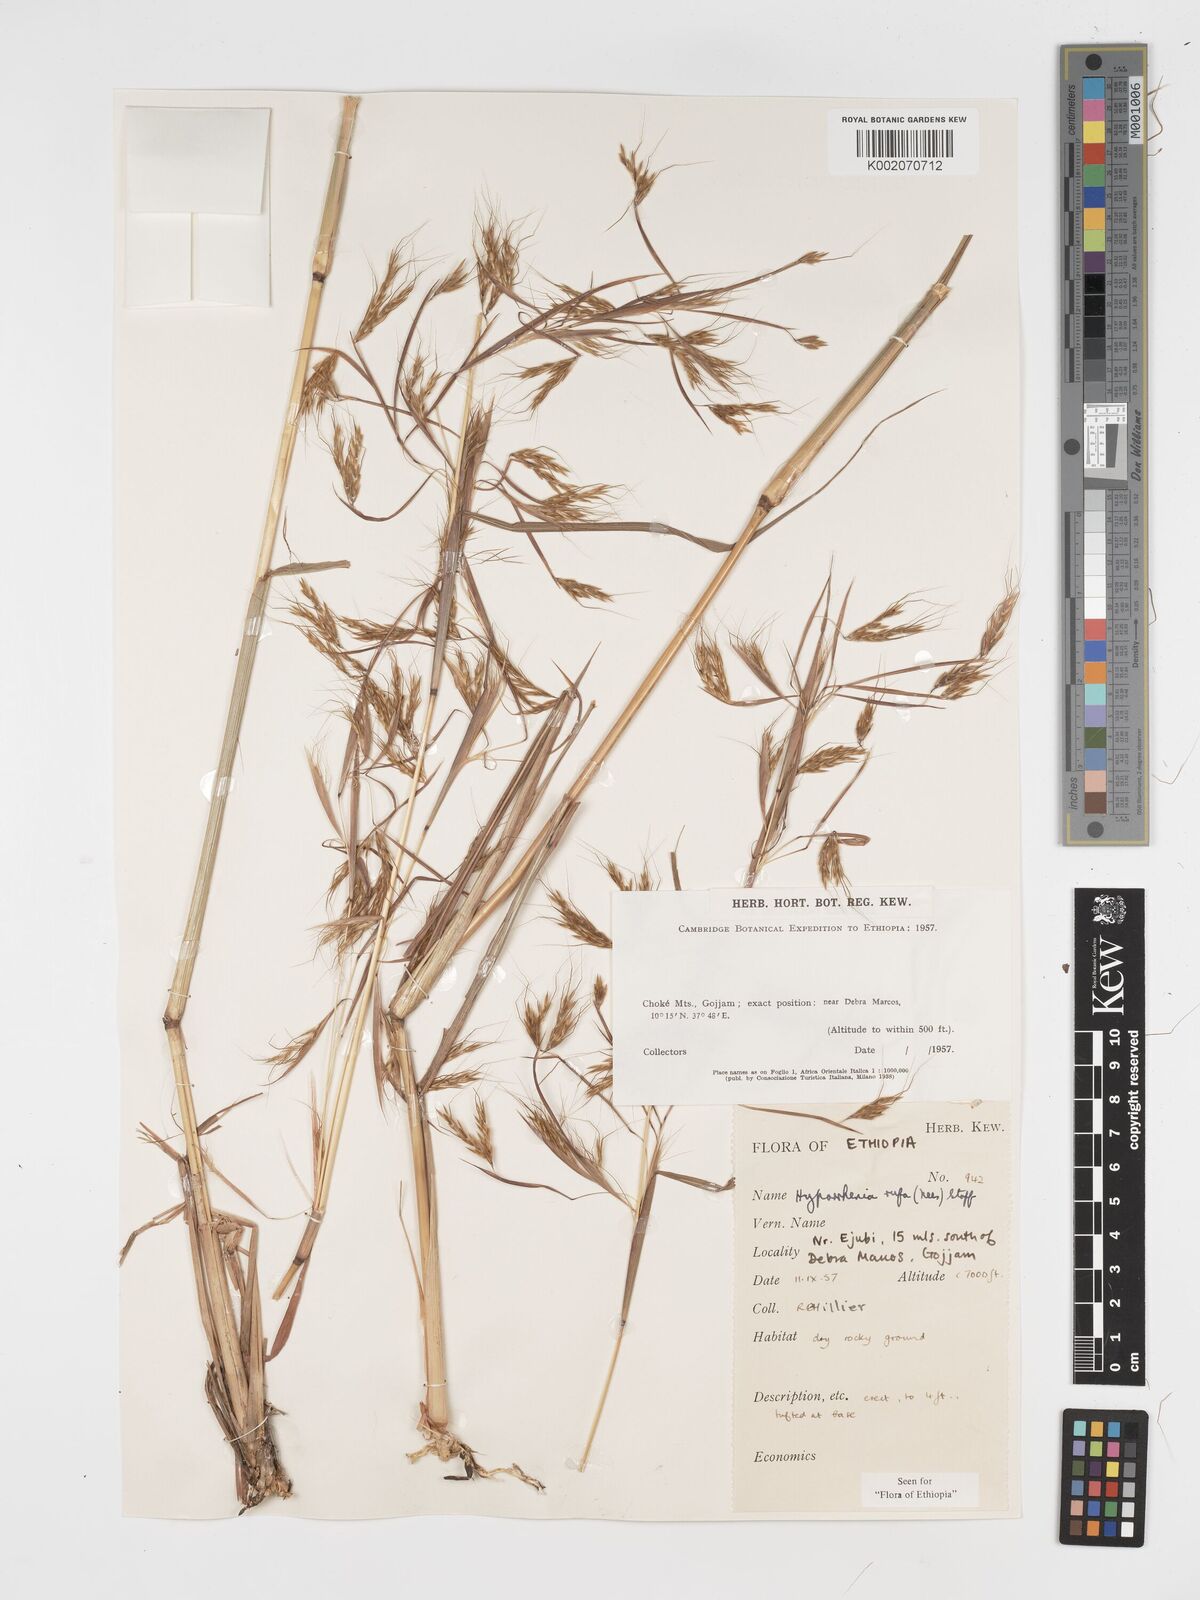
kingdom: Plantae
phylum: Tracheophyta
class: Liliopsida
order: Poales
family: Poaceae
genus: Hyparrhenia
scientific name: Hyparrhenia rufa
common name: Jaraguagrass
